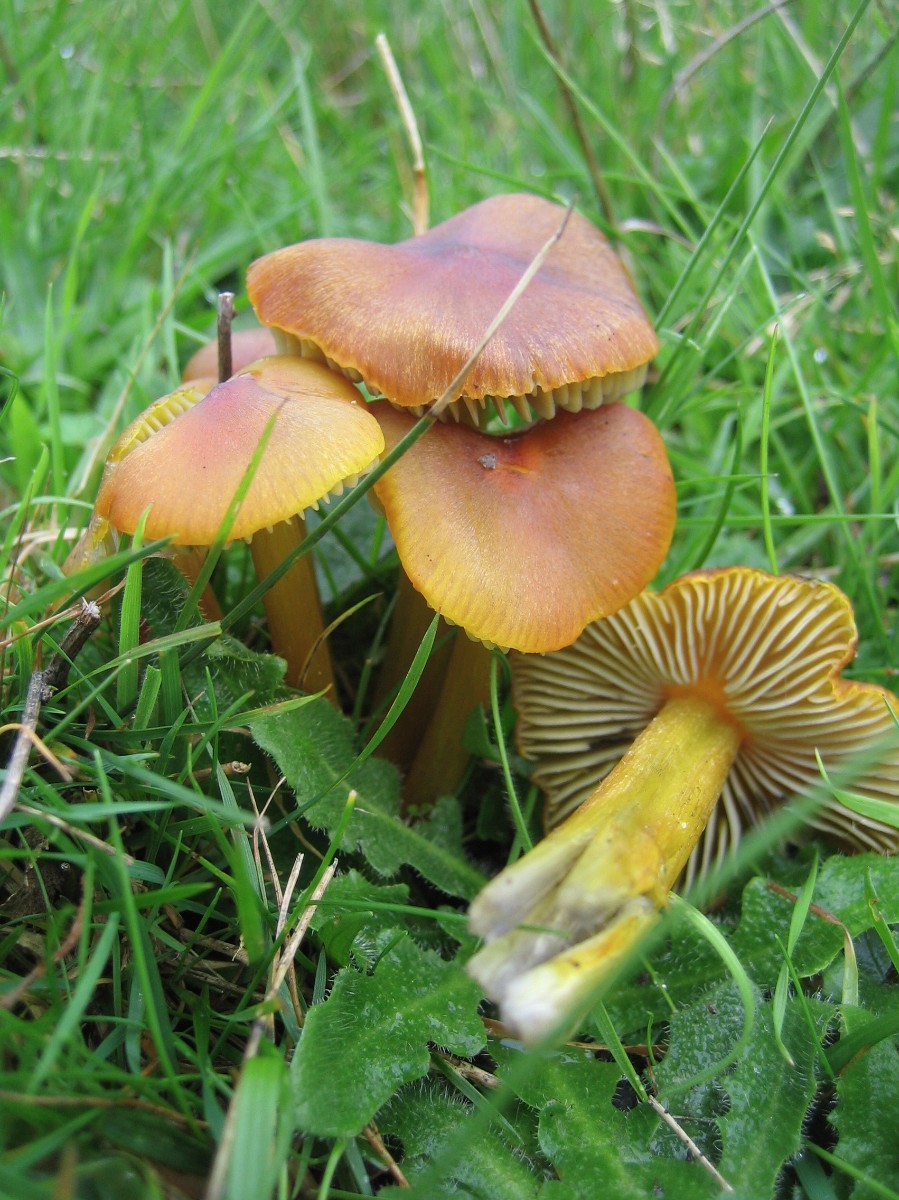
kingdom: Fungi
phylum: Basidiomycota
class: Agaricomycetes
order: Agaricales
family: Hygrophoraceae
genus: Hygrocybe
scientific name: Hygrocybe conica
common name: kegle-vokshat
